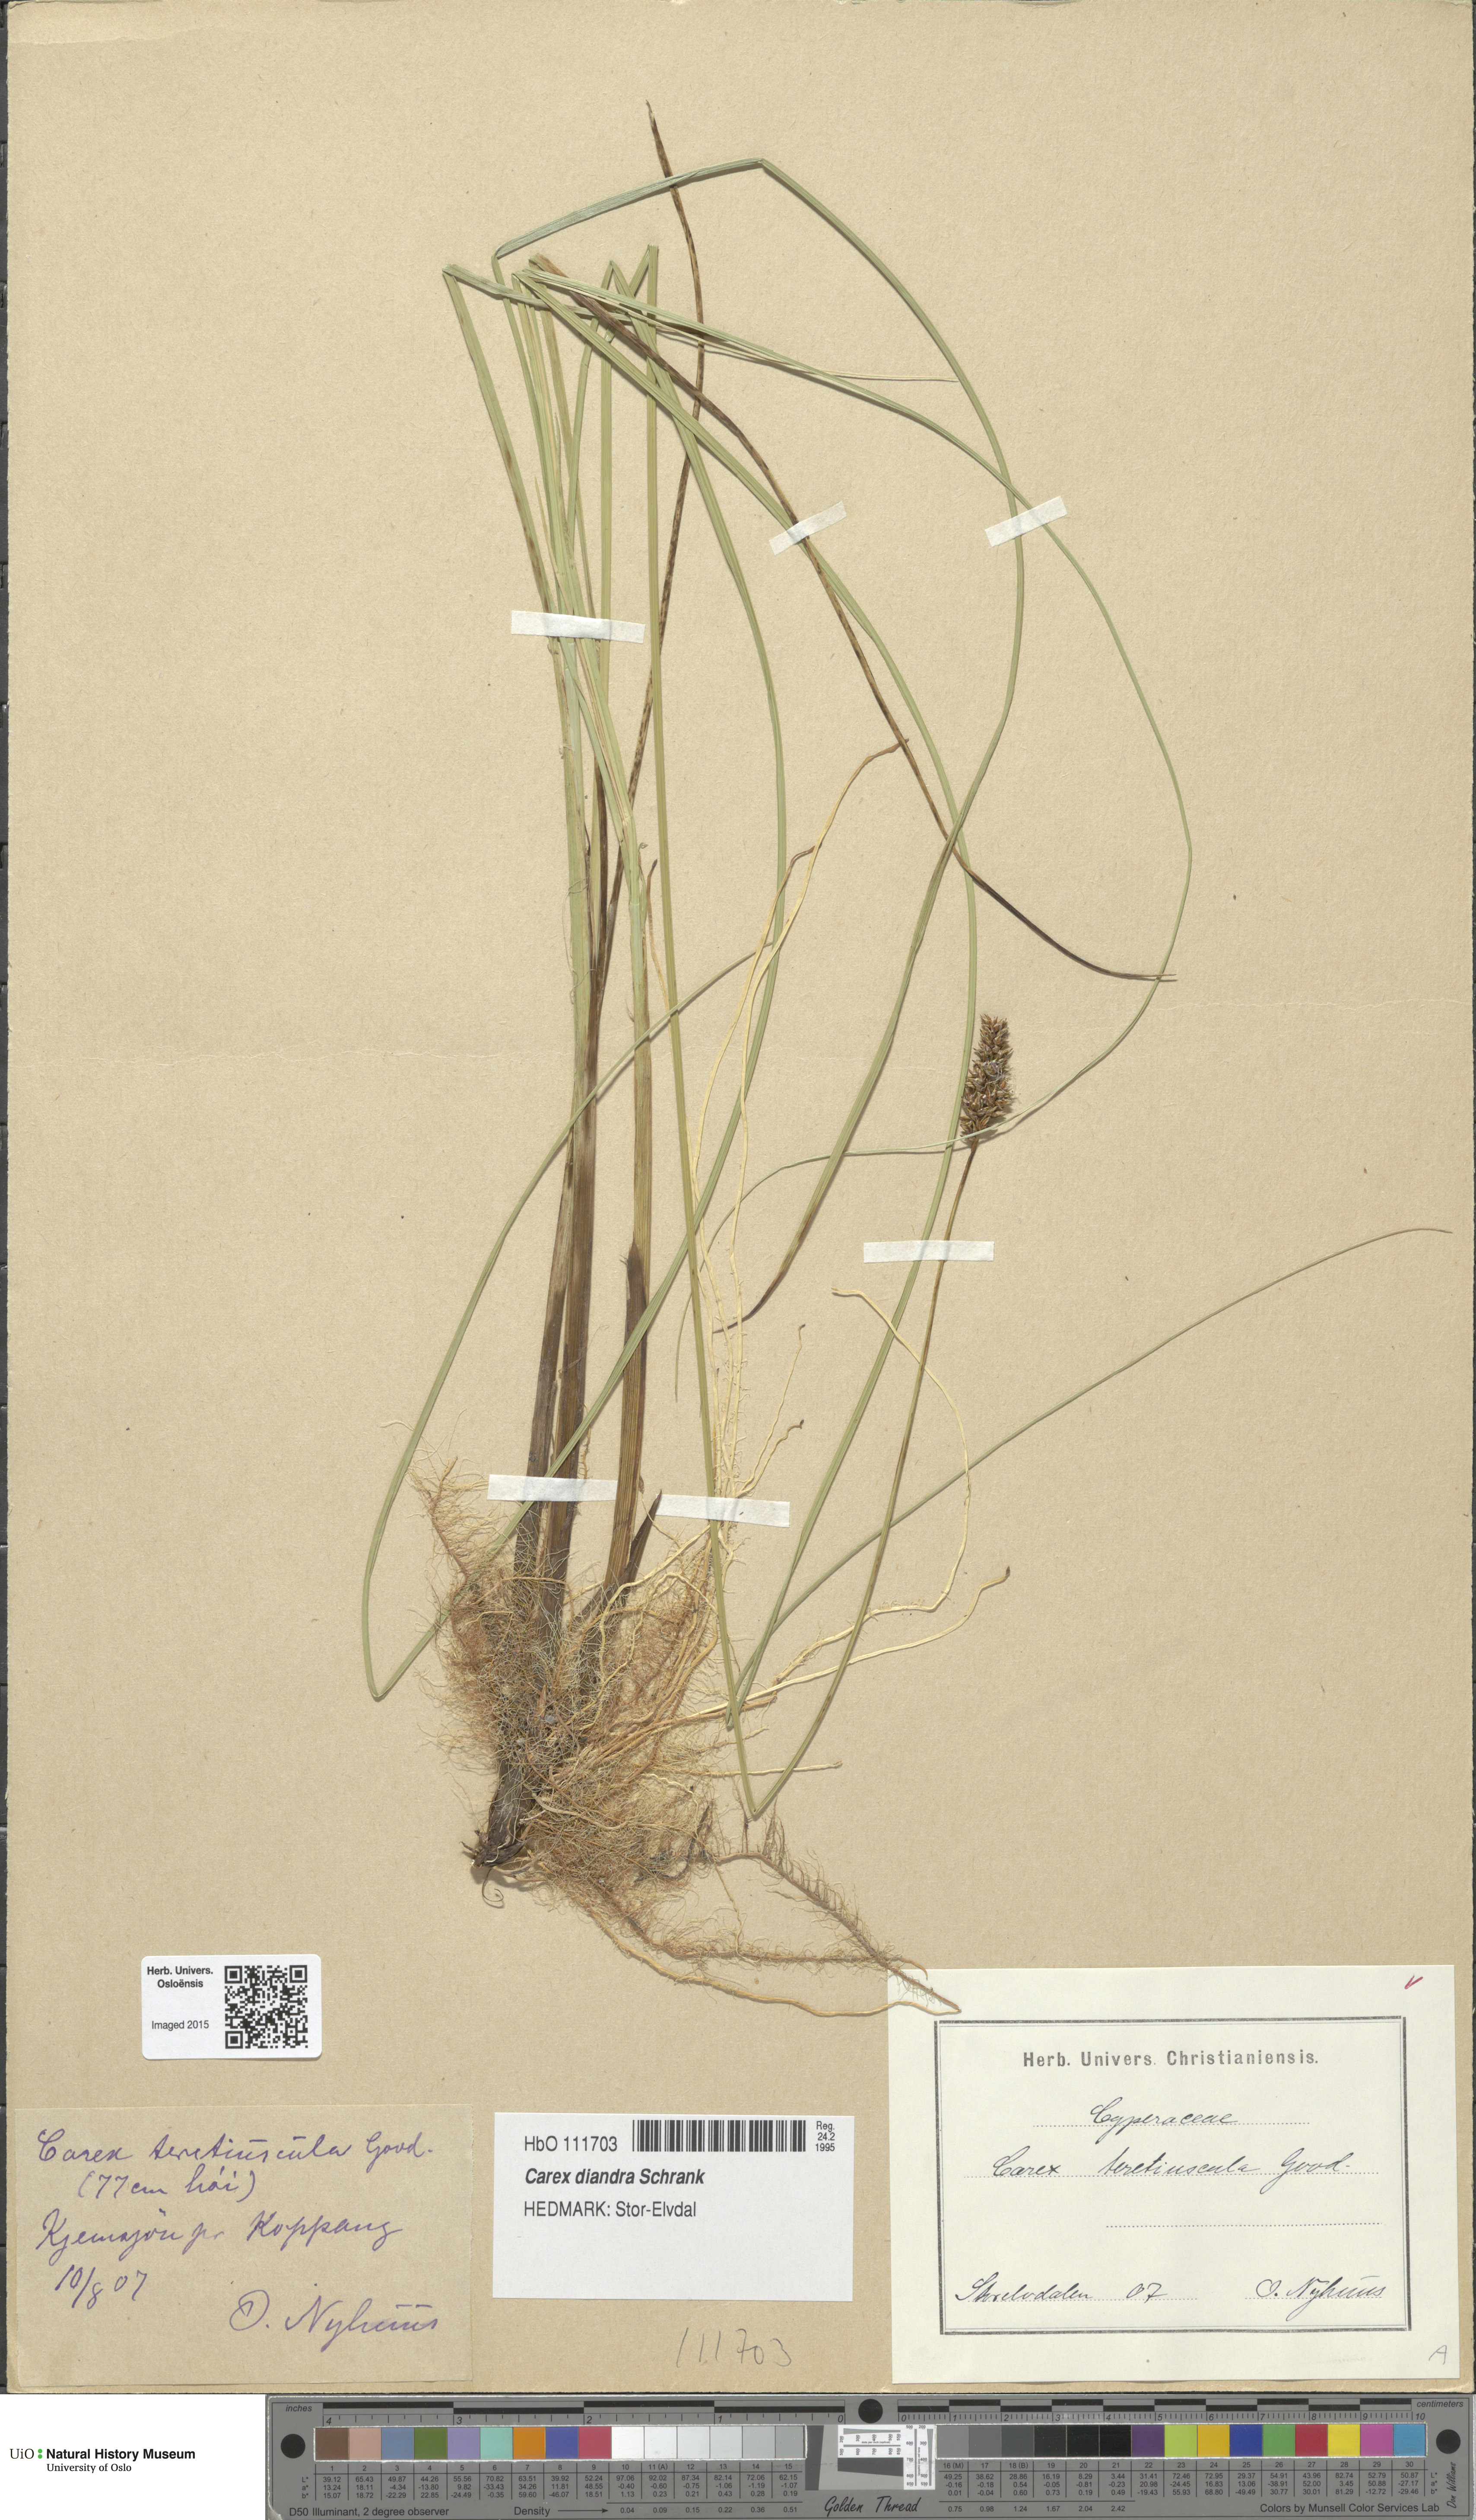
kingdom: Plantae
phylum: Tracheophyta
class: Liliopsida
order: Poales
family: Cyperaceae
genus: Carex
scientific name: Carex diandra
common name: Lesser tussock-sedge
